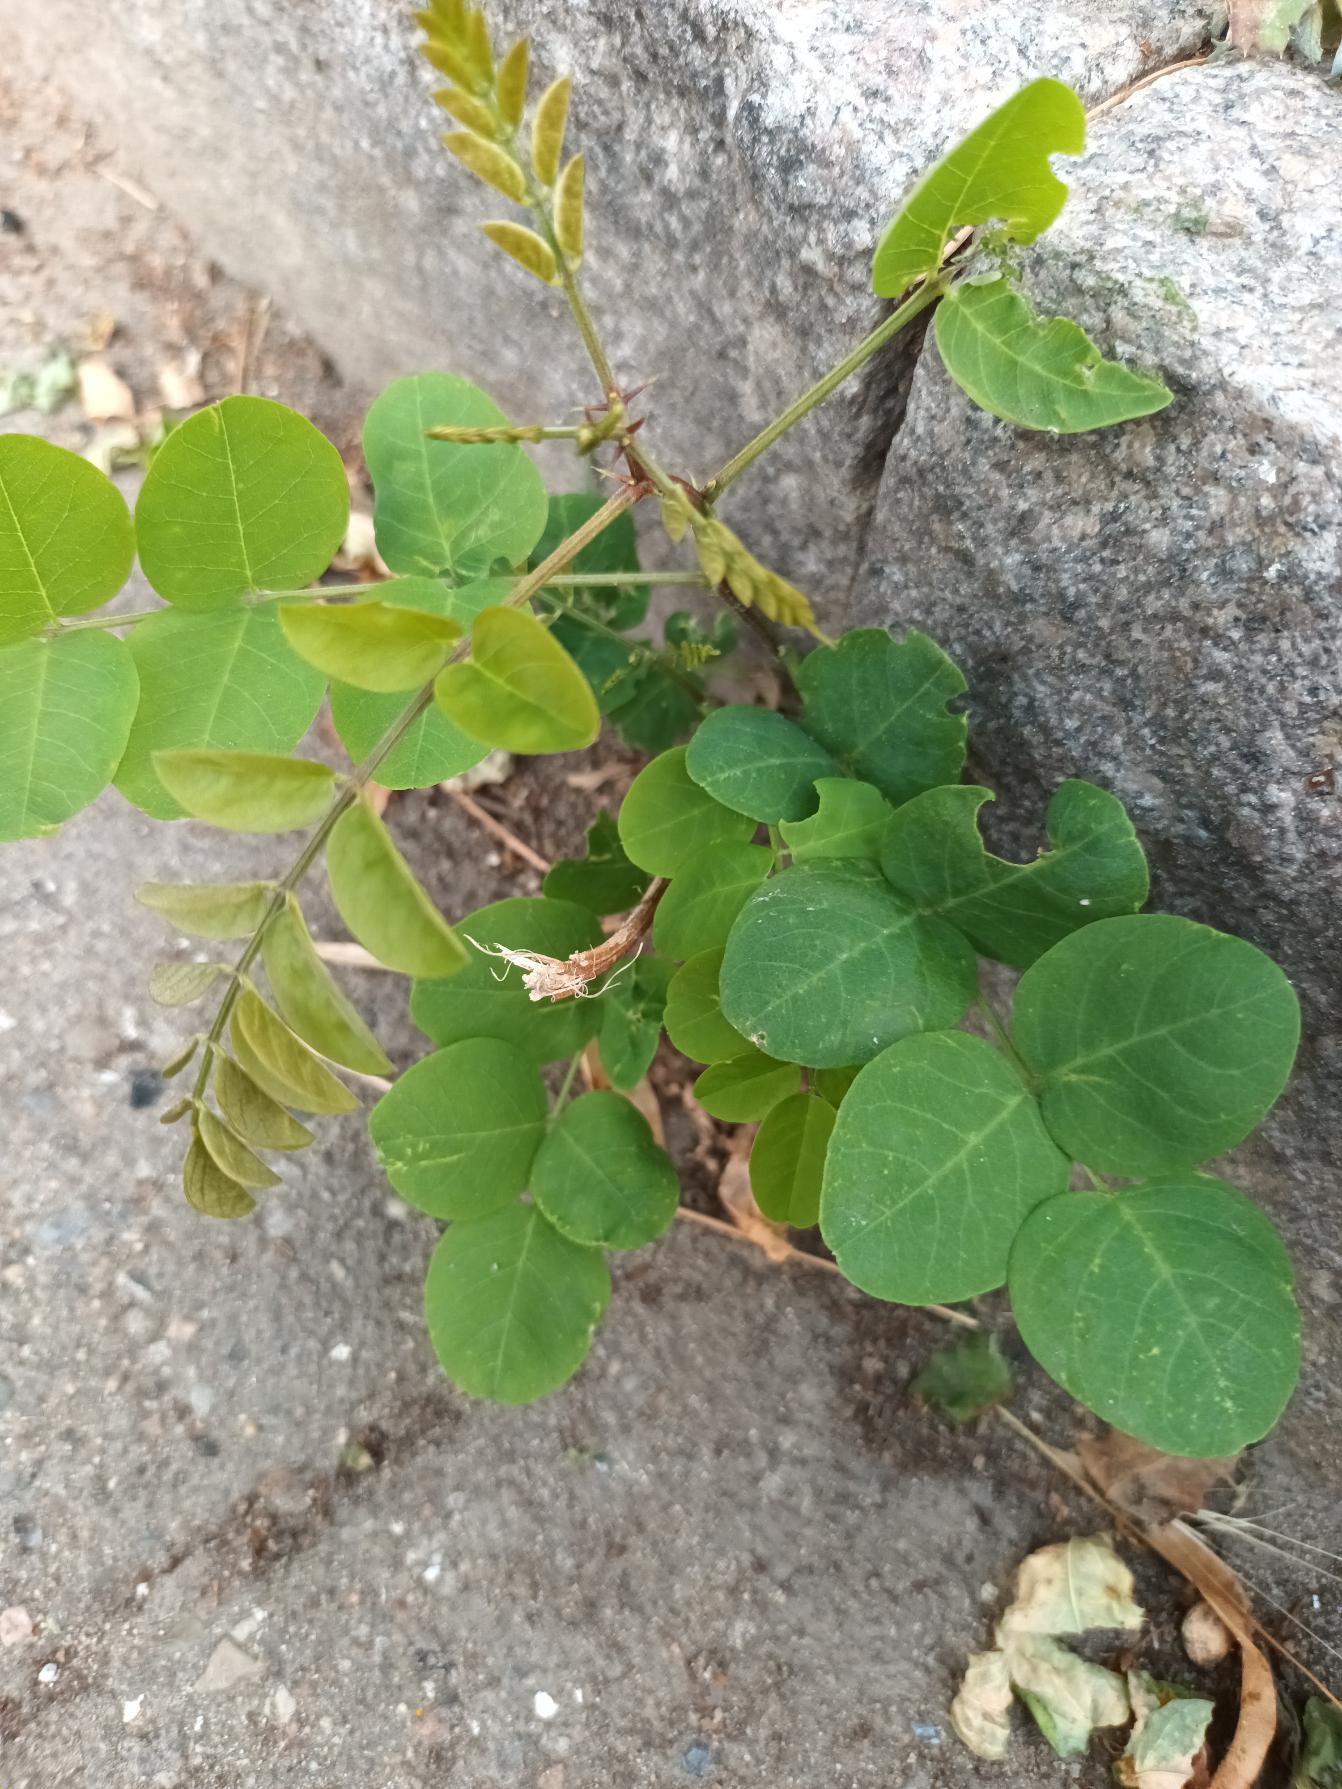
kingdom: Plantae
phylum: Tracheophyta
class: Magnoliopsida
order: Fabales
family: Fabaceae
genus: Robinia
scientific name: Robinia pseudoacacia
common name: Robinie
